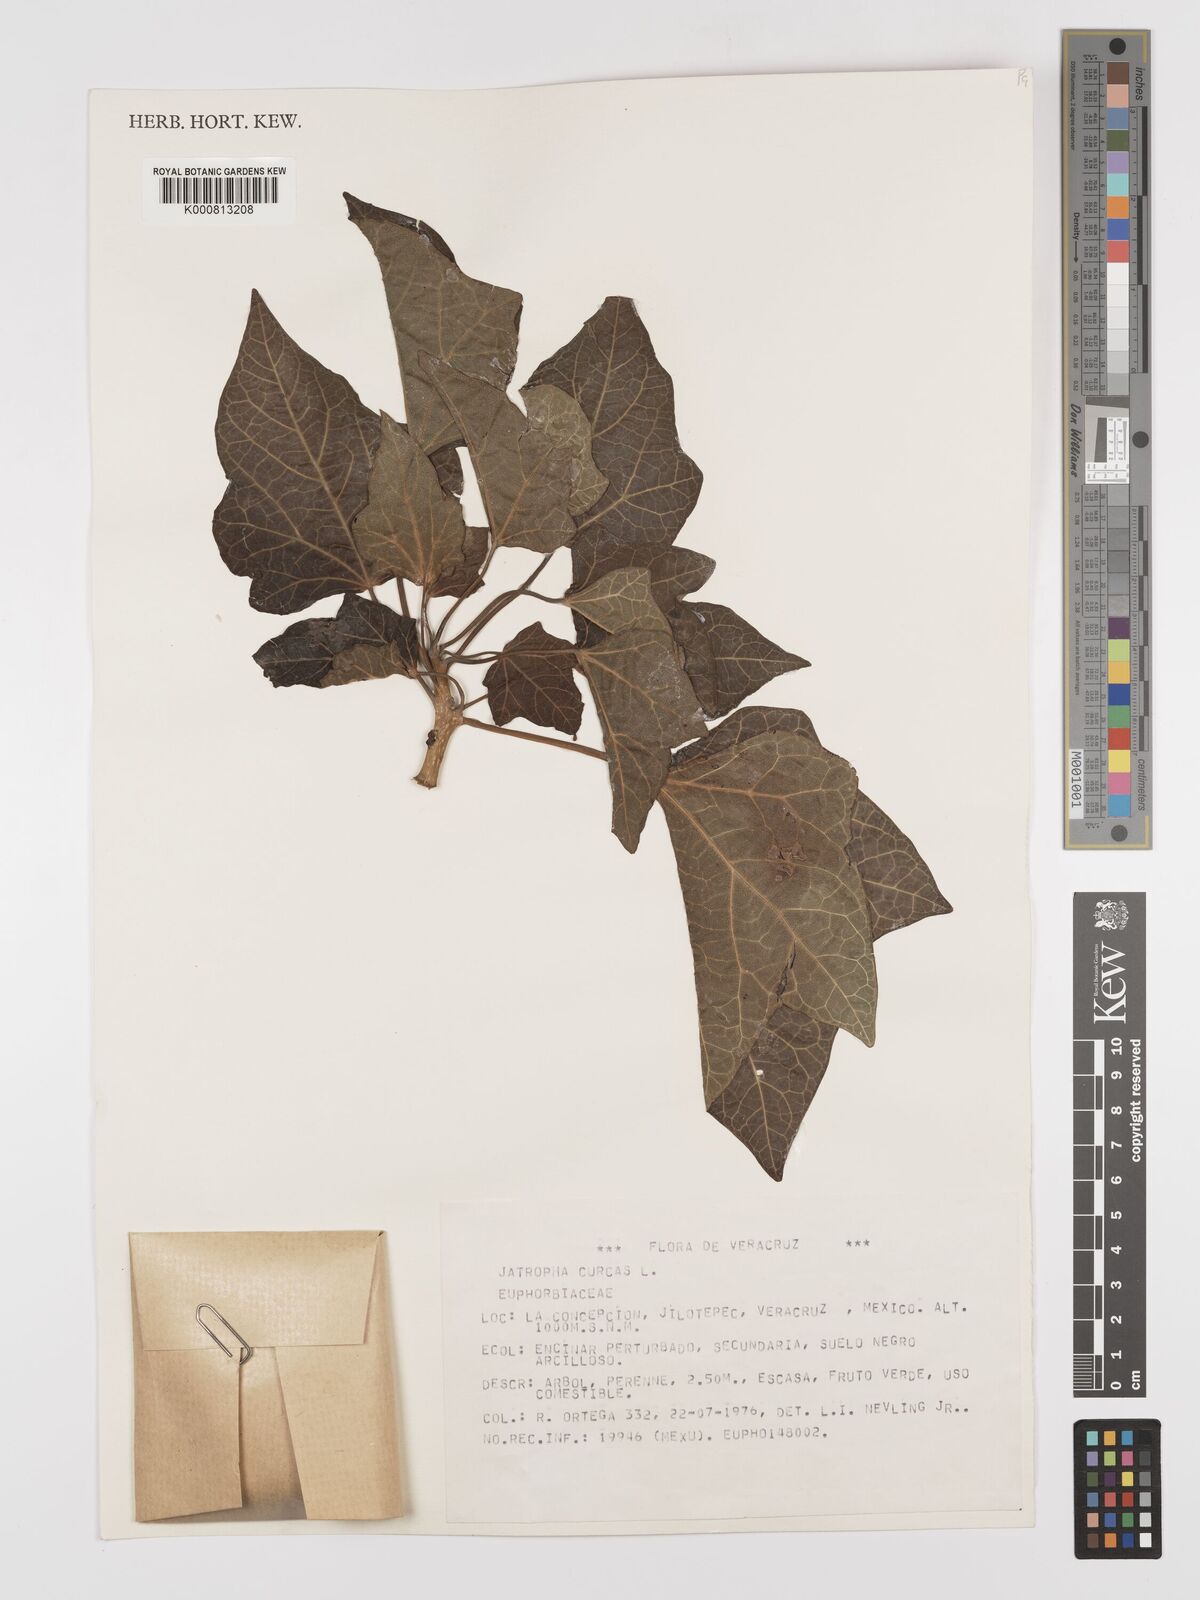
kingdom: Plantae
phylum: Tracheophyta
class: Magnoliopsida
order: Malpighiales
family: Euphorbiaceae
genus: Jatropha
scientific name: Jatropha curcas
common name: Barbados nut
